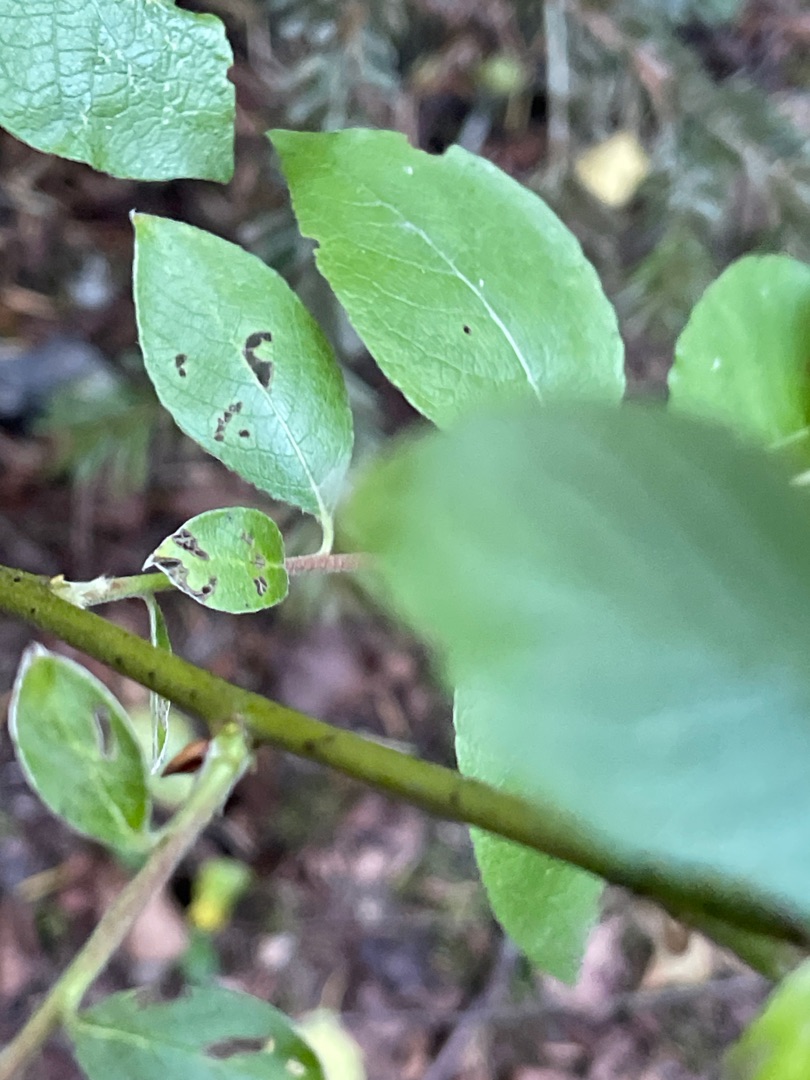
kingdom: Plantae
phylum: Tracheophyta
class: Magnoliopsida
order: Malpighiales
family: Salicaceae
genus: Salix
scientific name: Salix caprea
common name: Selje-pil
